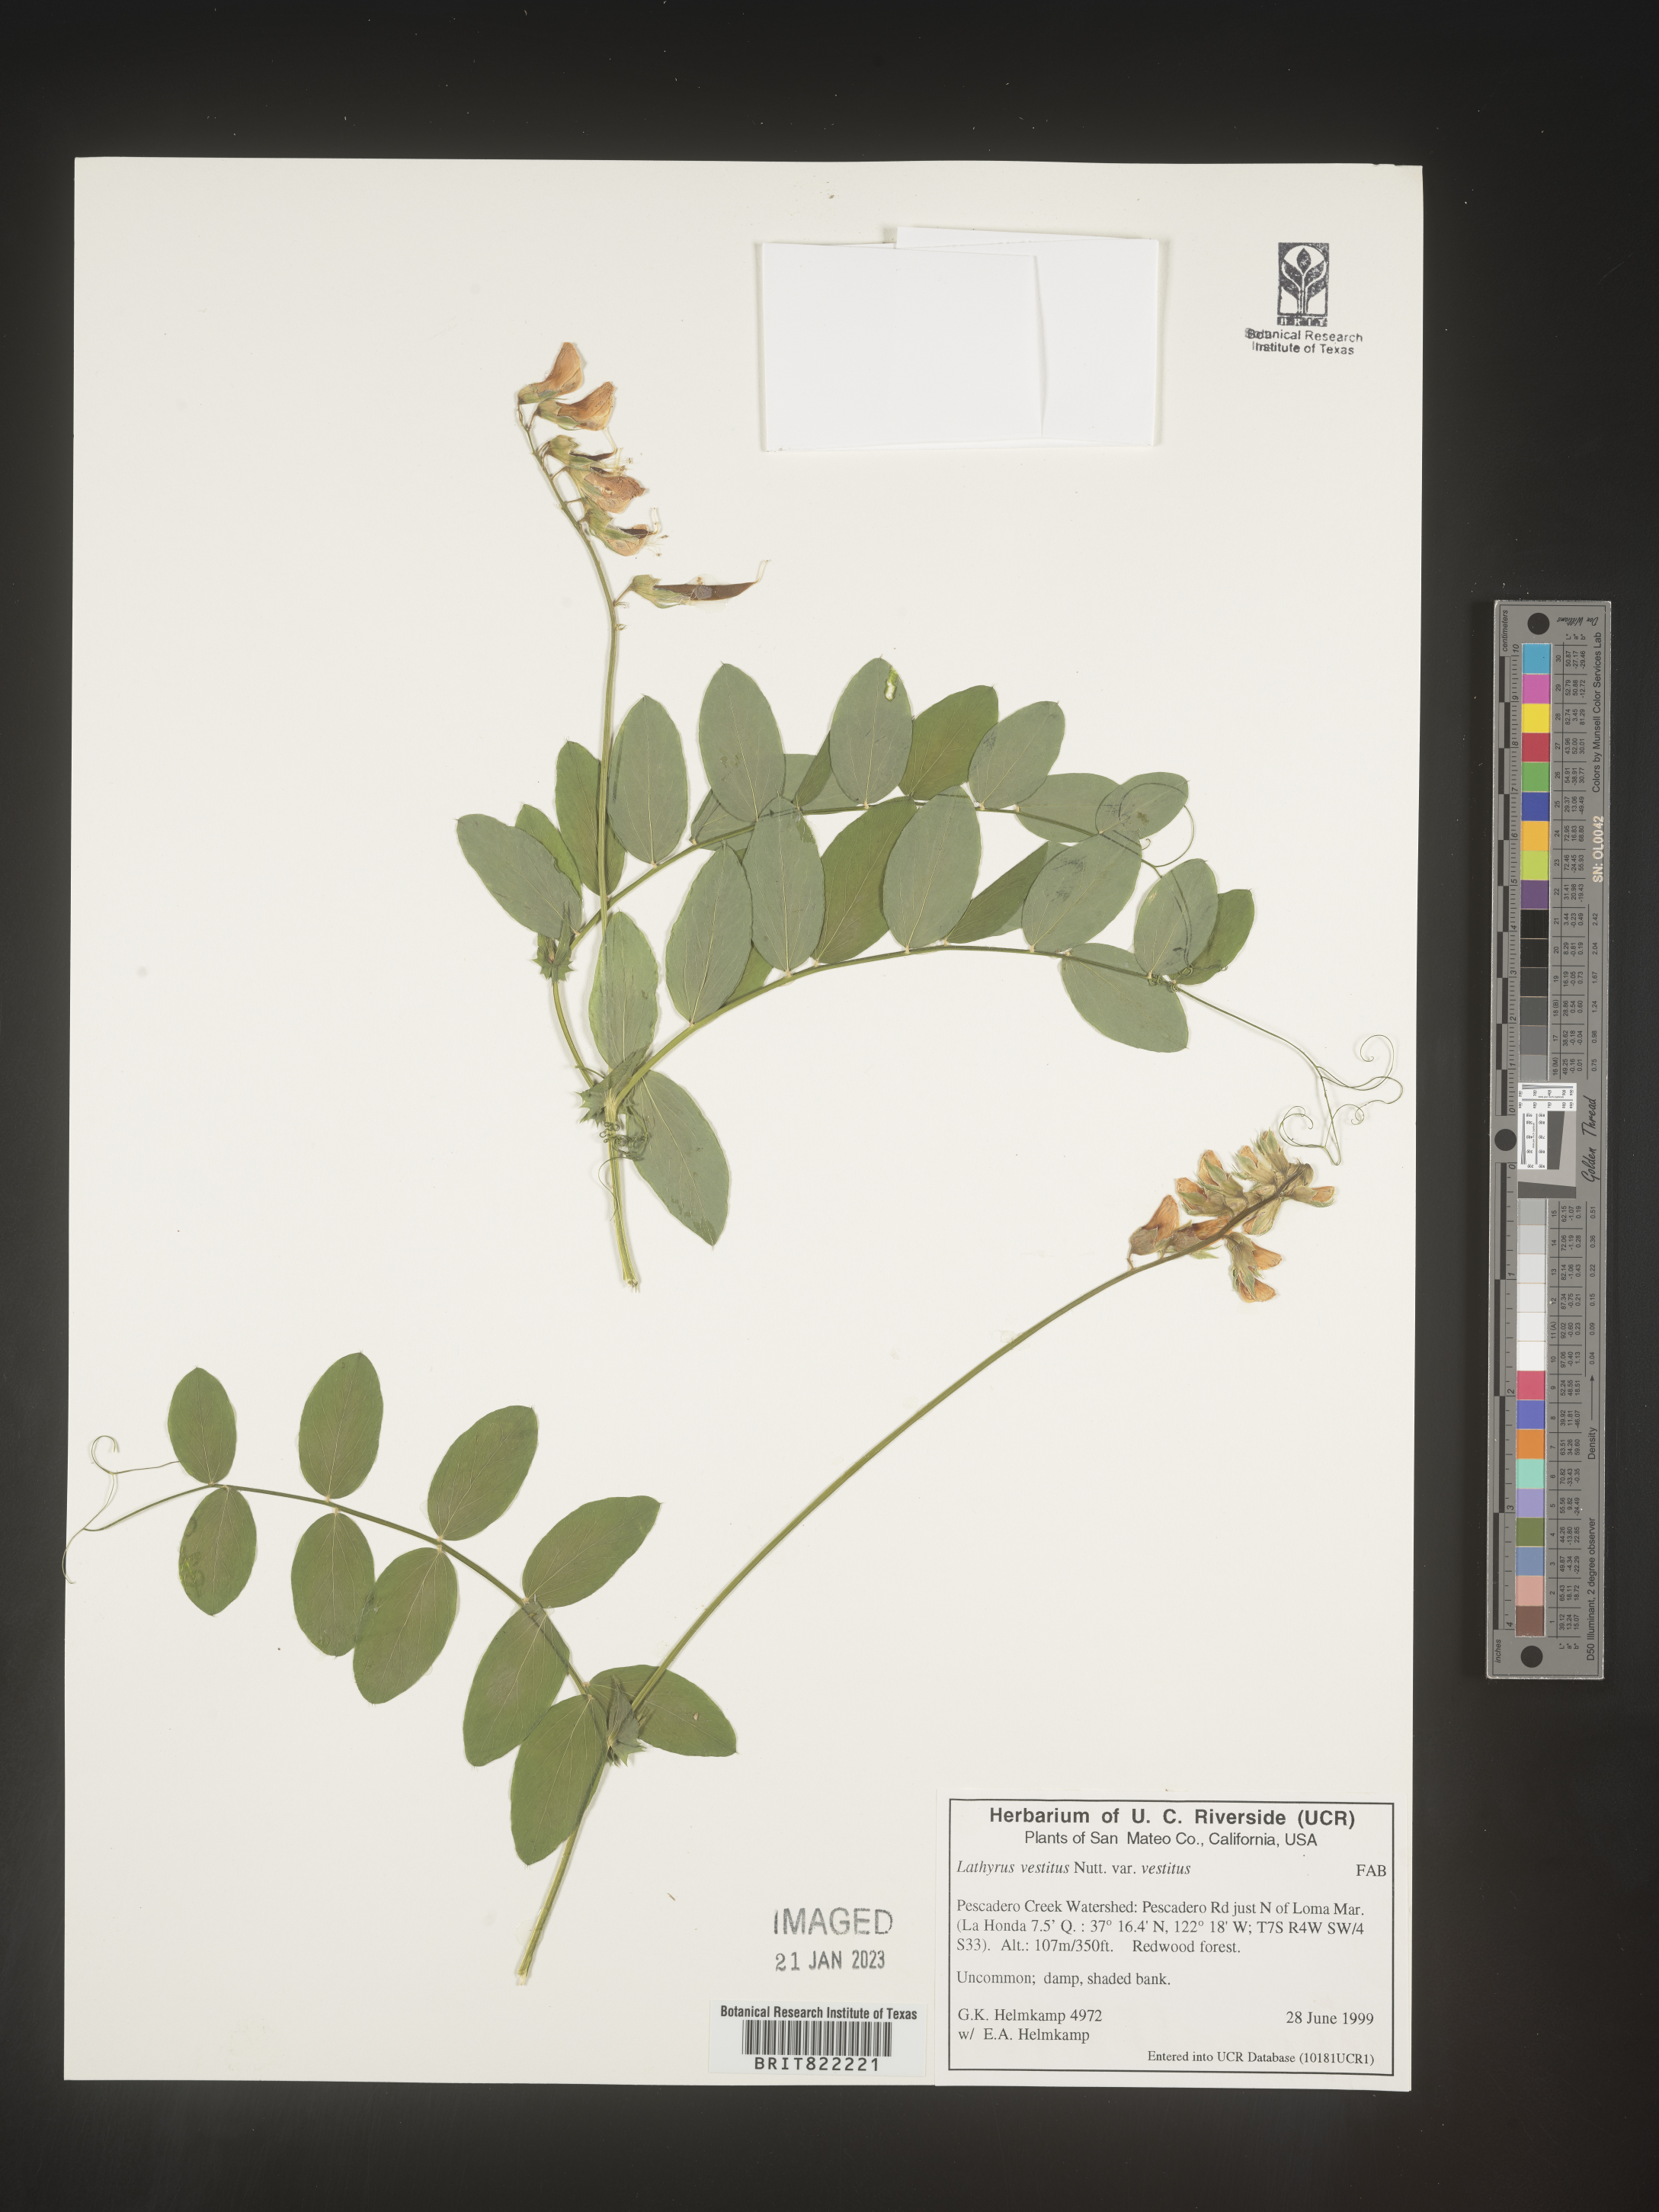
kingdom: Plantae
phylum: Tracheophyta
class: Magnoliopsida
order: Fabales
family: Fabaceae
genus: Lathyrus
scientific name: Lathyrus vestitus
